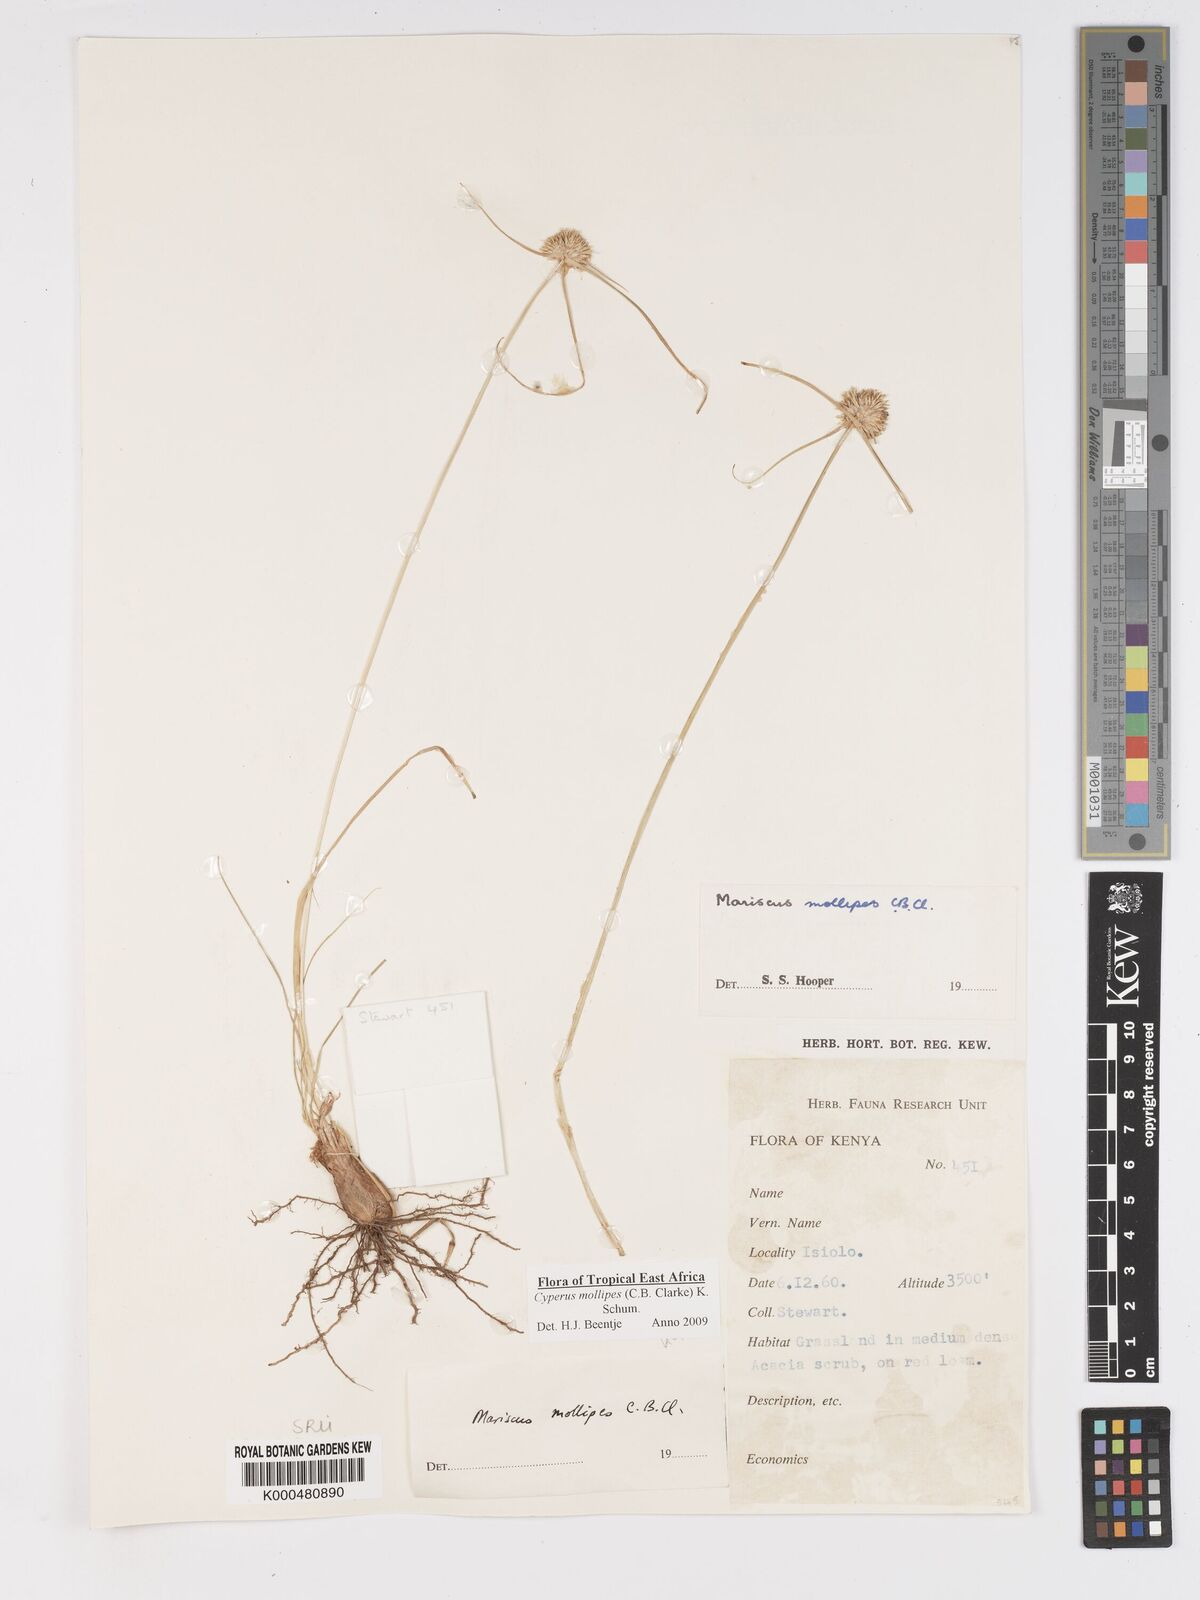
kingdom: Plantae
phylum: Tracheophyta
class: Liliopsida
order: Poales
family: Cyperaceae
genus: Cyperus
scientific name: Cyperus mollipes
